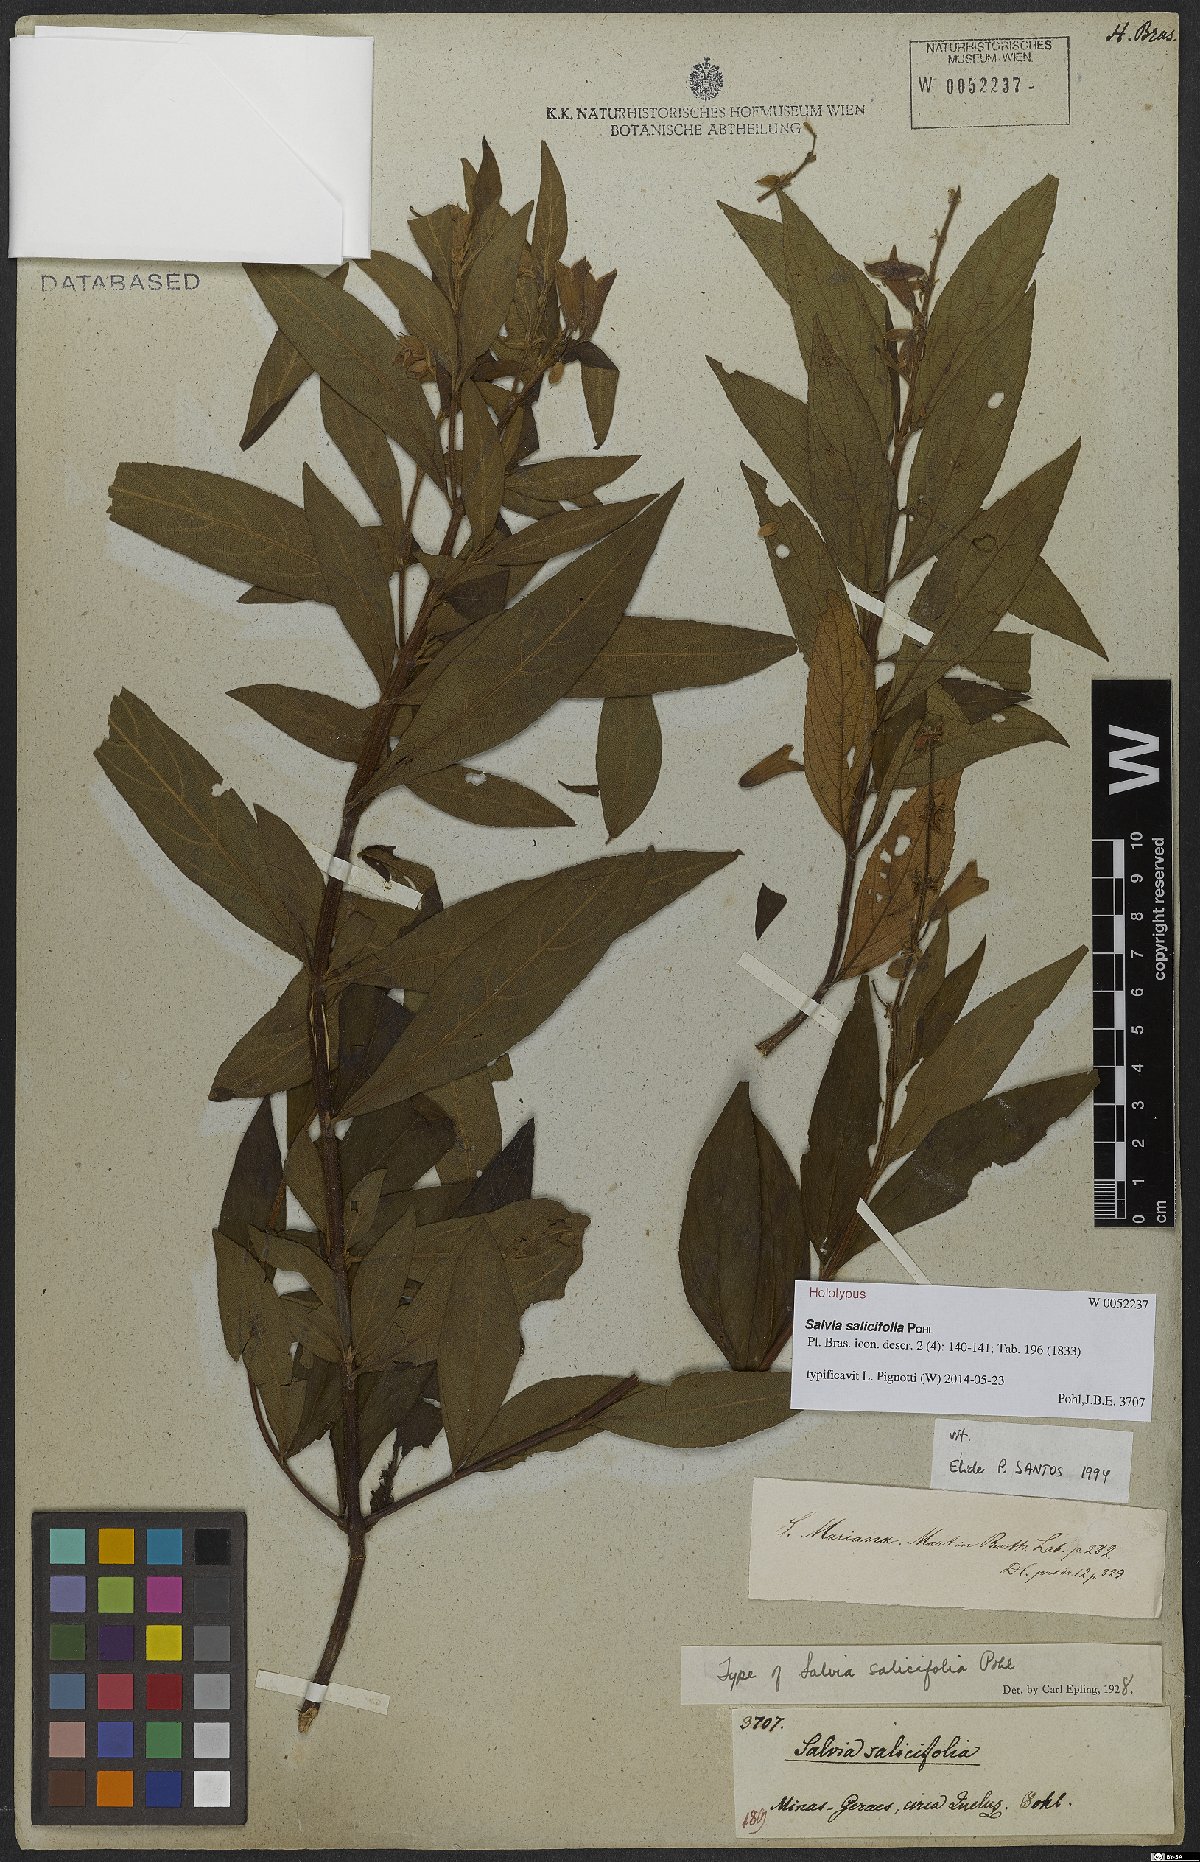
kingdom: Plantae
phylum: Tracheophyta
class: Magnoliopsida
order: Lamiales
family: Lamiaceae
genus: Salvia
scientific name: Salvia salicifolia
